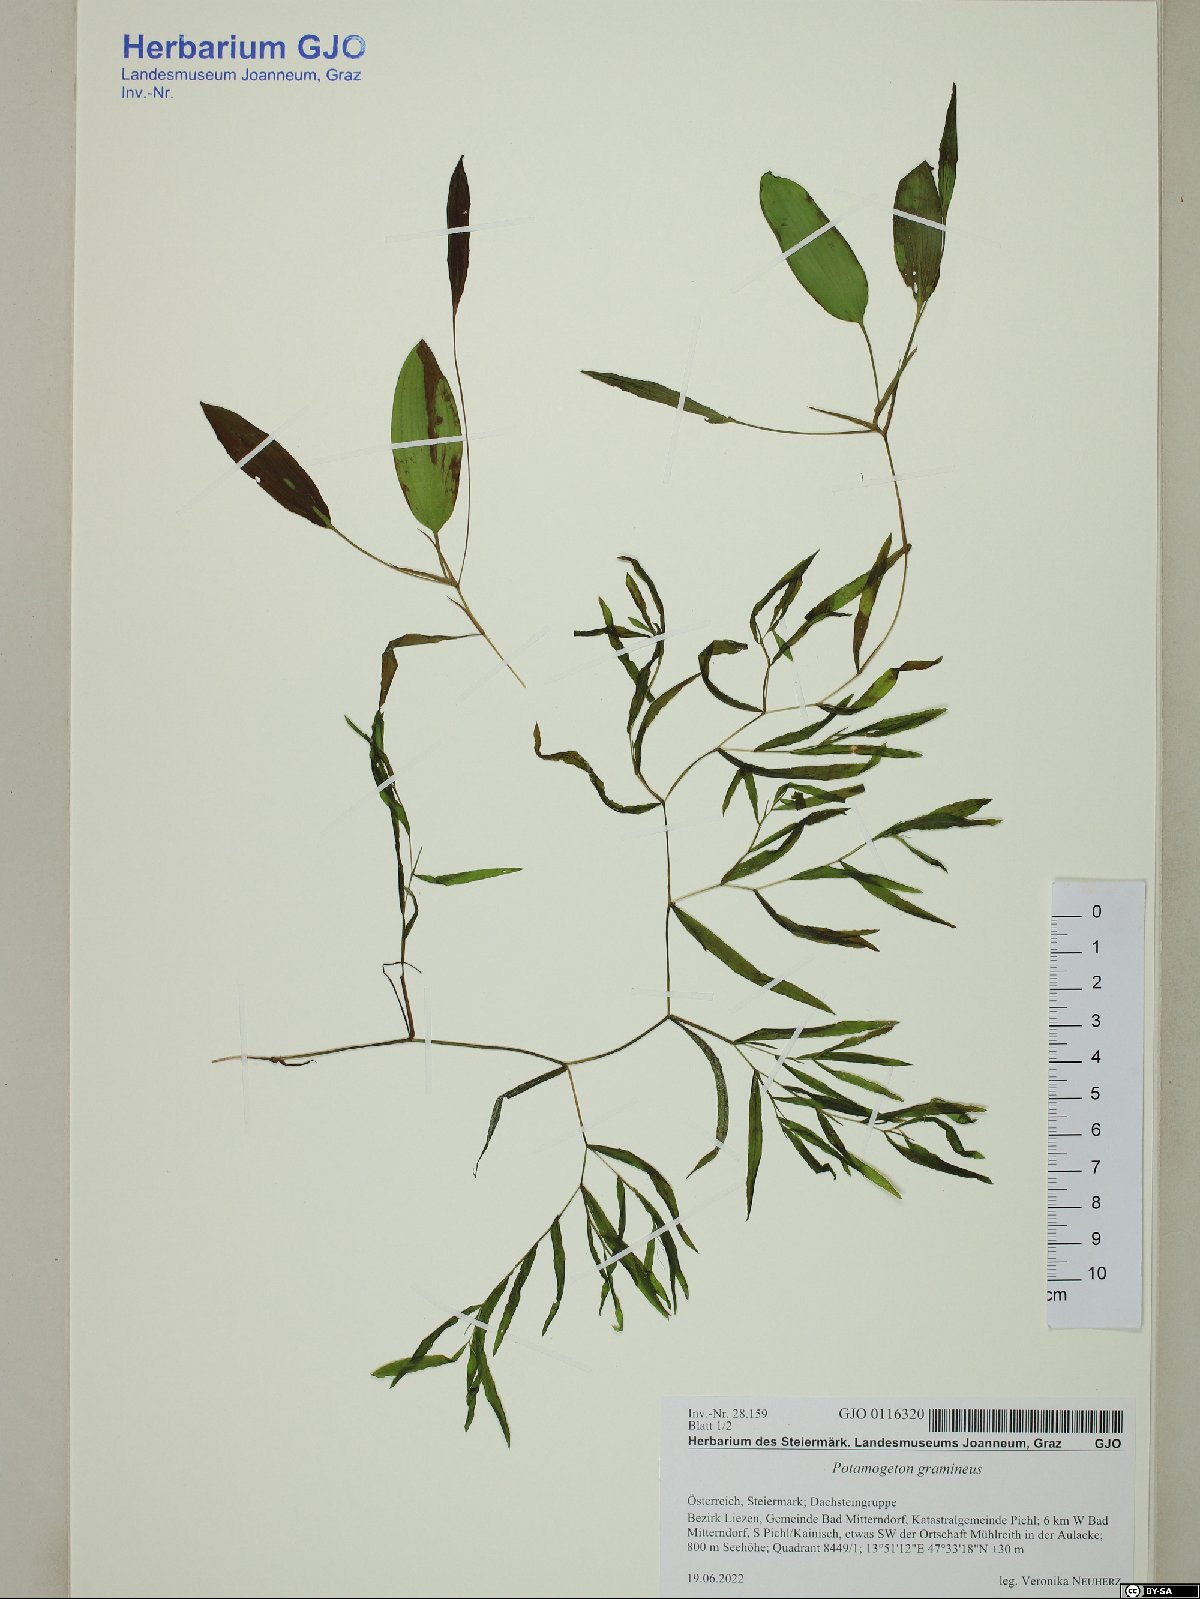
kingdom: Plantae
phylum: Tracheophyta
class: Liliopsida
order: Alismatales
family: Potamogetonaceae
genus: Potamogeton
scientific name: Potamogeton gramineus
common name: Various-leaved pondweed
